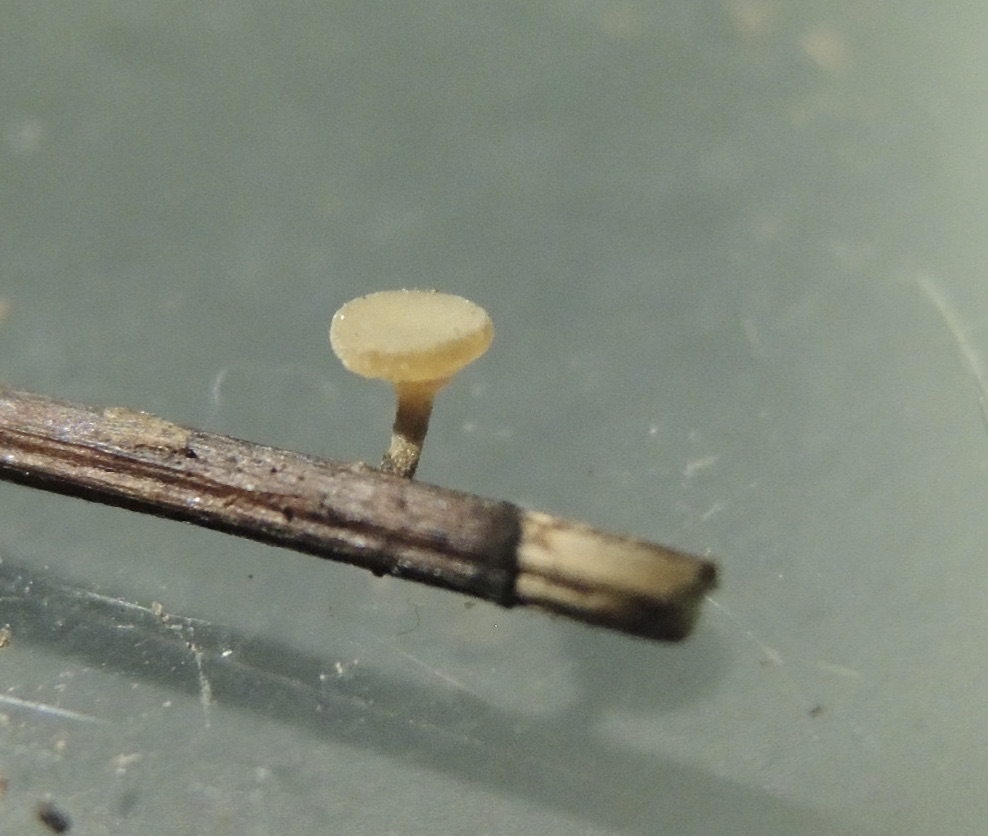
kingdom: Fungi
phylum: Ascomycota
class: Leotiomycetes
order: Helotiales
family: Rutstroemiaceae
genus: Lanzia
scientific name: Lanzia luteovirescens
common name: olivengul brunskive
